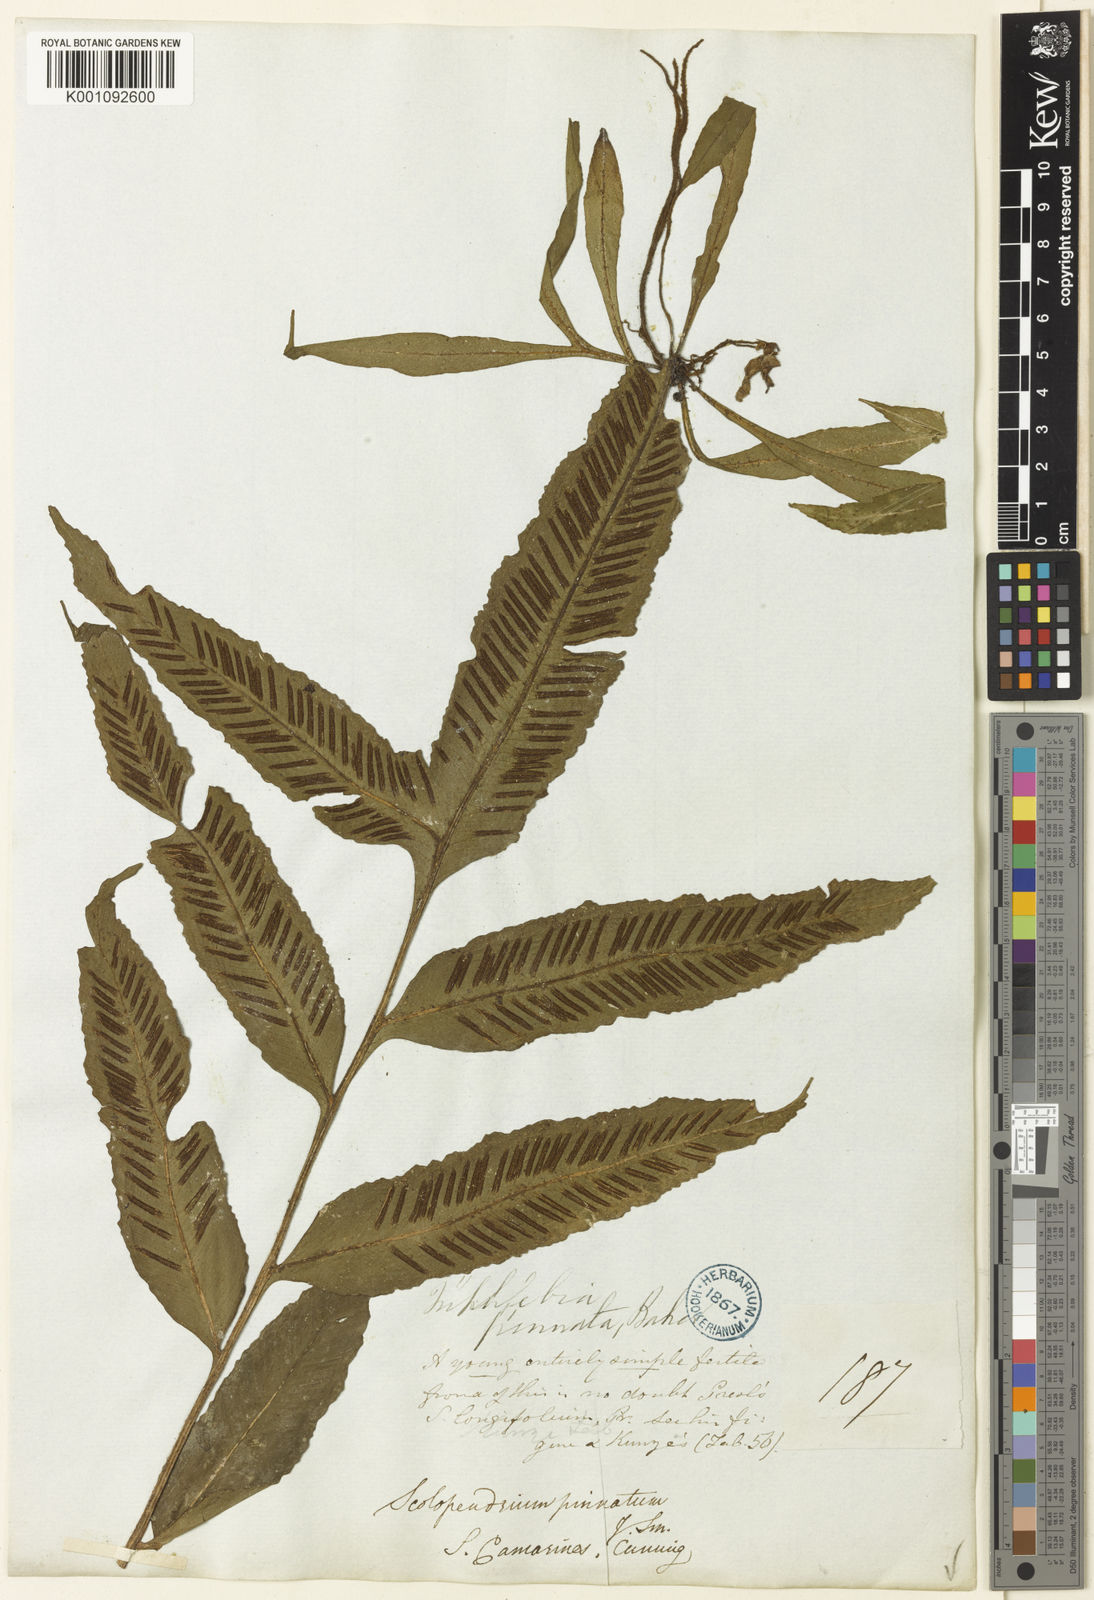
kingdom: Plantae
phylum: Tracheophyta
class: Polypodiopsida
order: Polypodiales
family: Aspleniaceae
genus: Asplenium
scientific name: Asplenium
